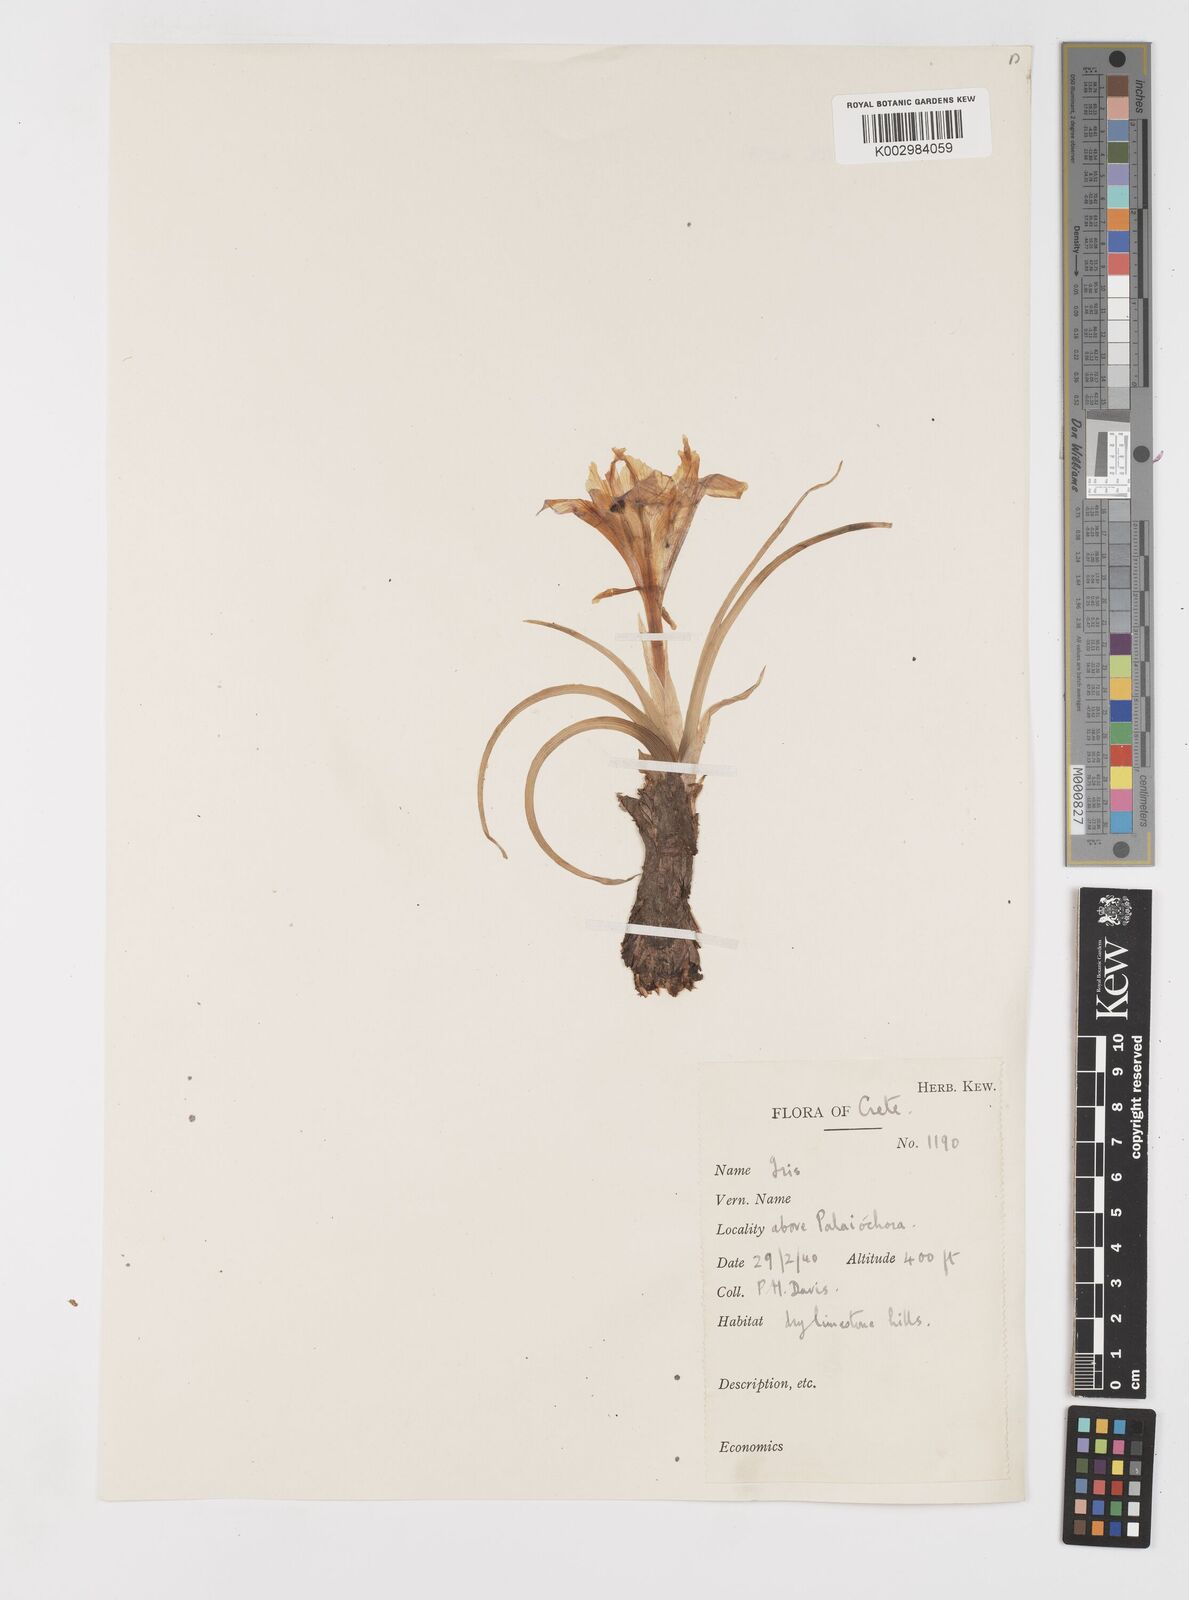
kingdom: Plantae
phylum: Tracheophyta
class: Liliopsida
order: Asparagales
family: Iridaceae
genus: Iris
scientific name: Iris planifolia
